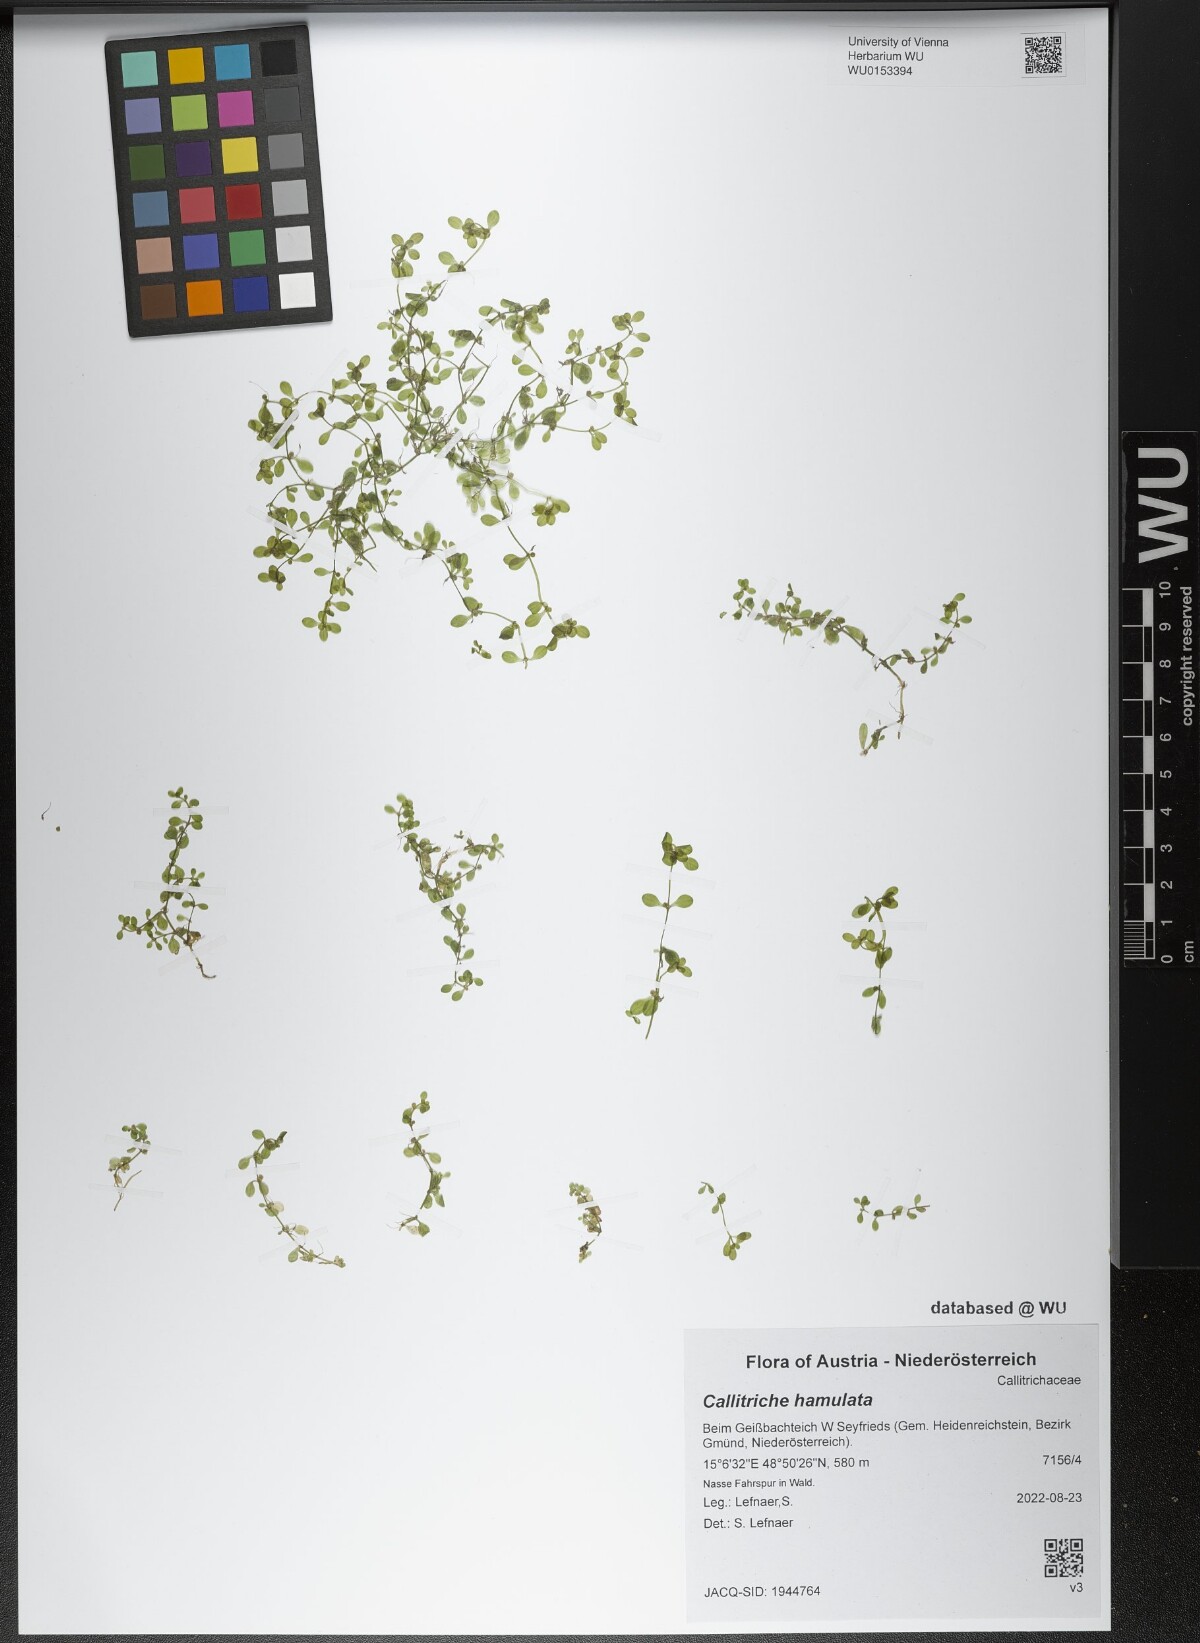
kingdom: Plantae
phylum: Tracheophyta
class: Magnoliopsida
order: Lamiales
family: Plantaginaceae
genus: Callitriche
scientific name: Callitriche hamulata
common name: Intermediate water-starwort
